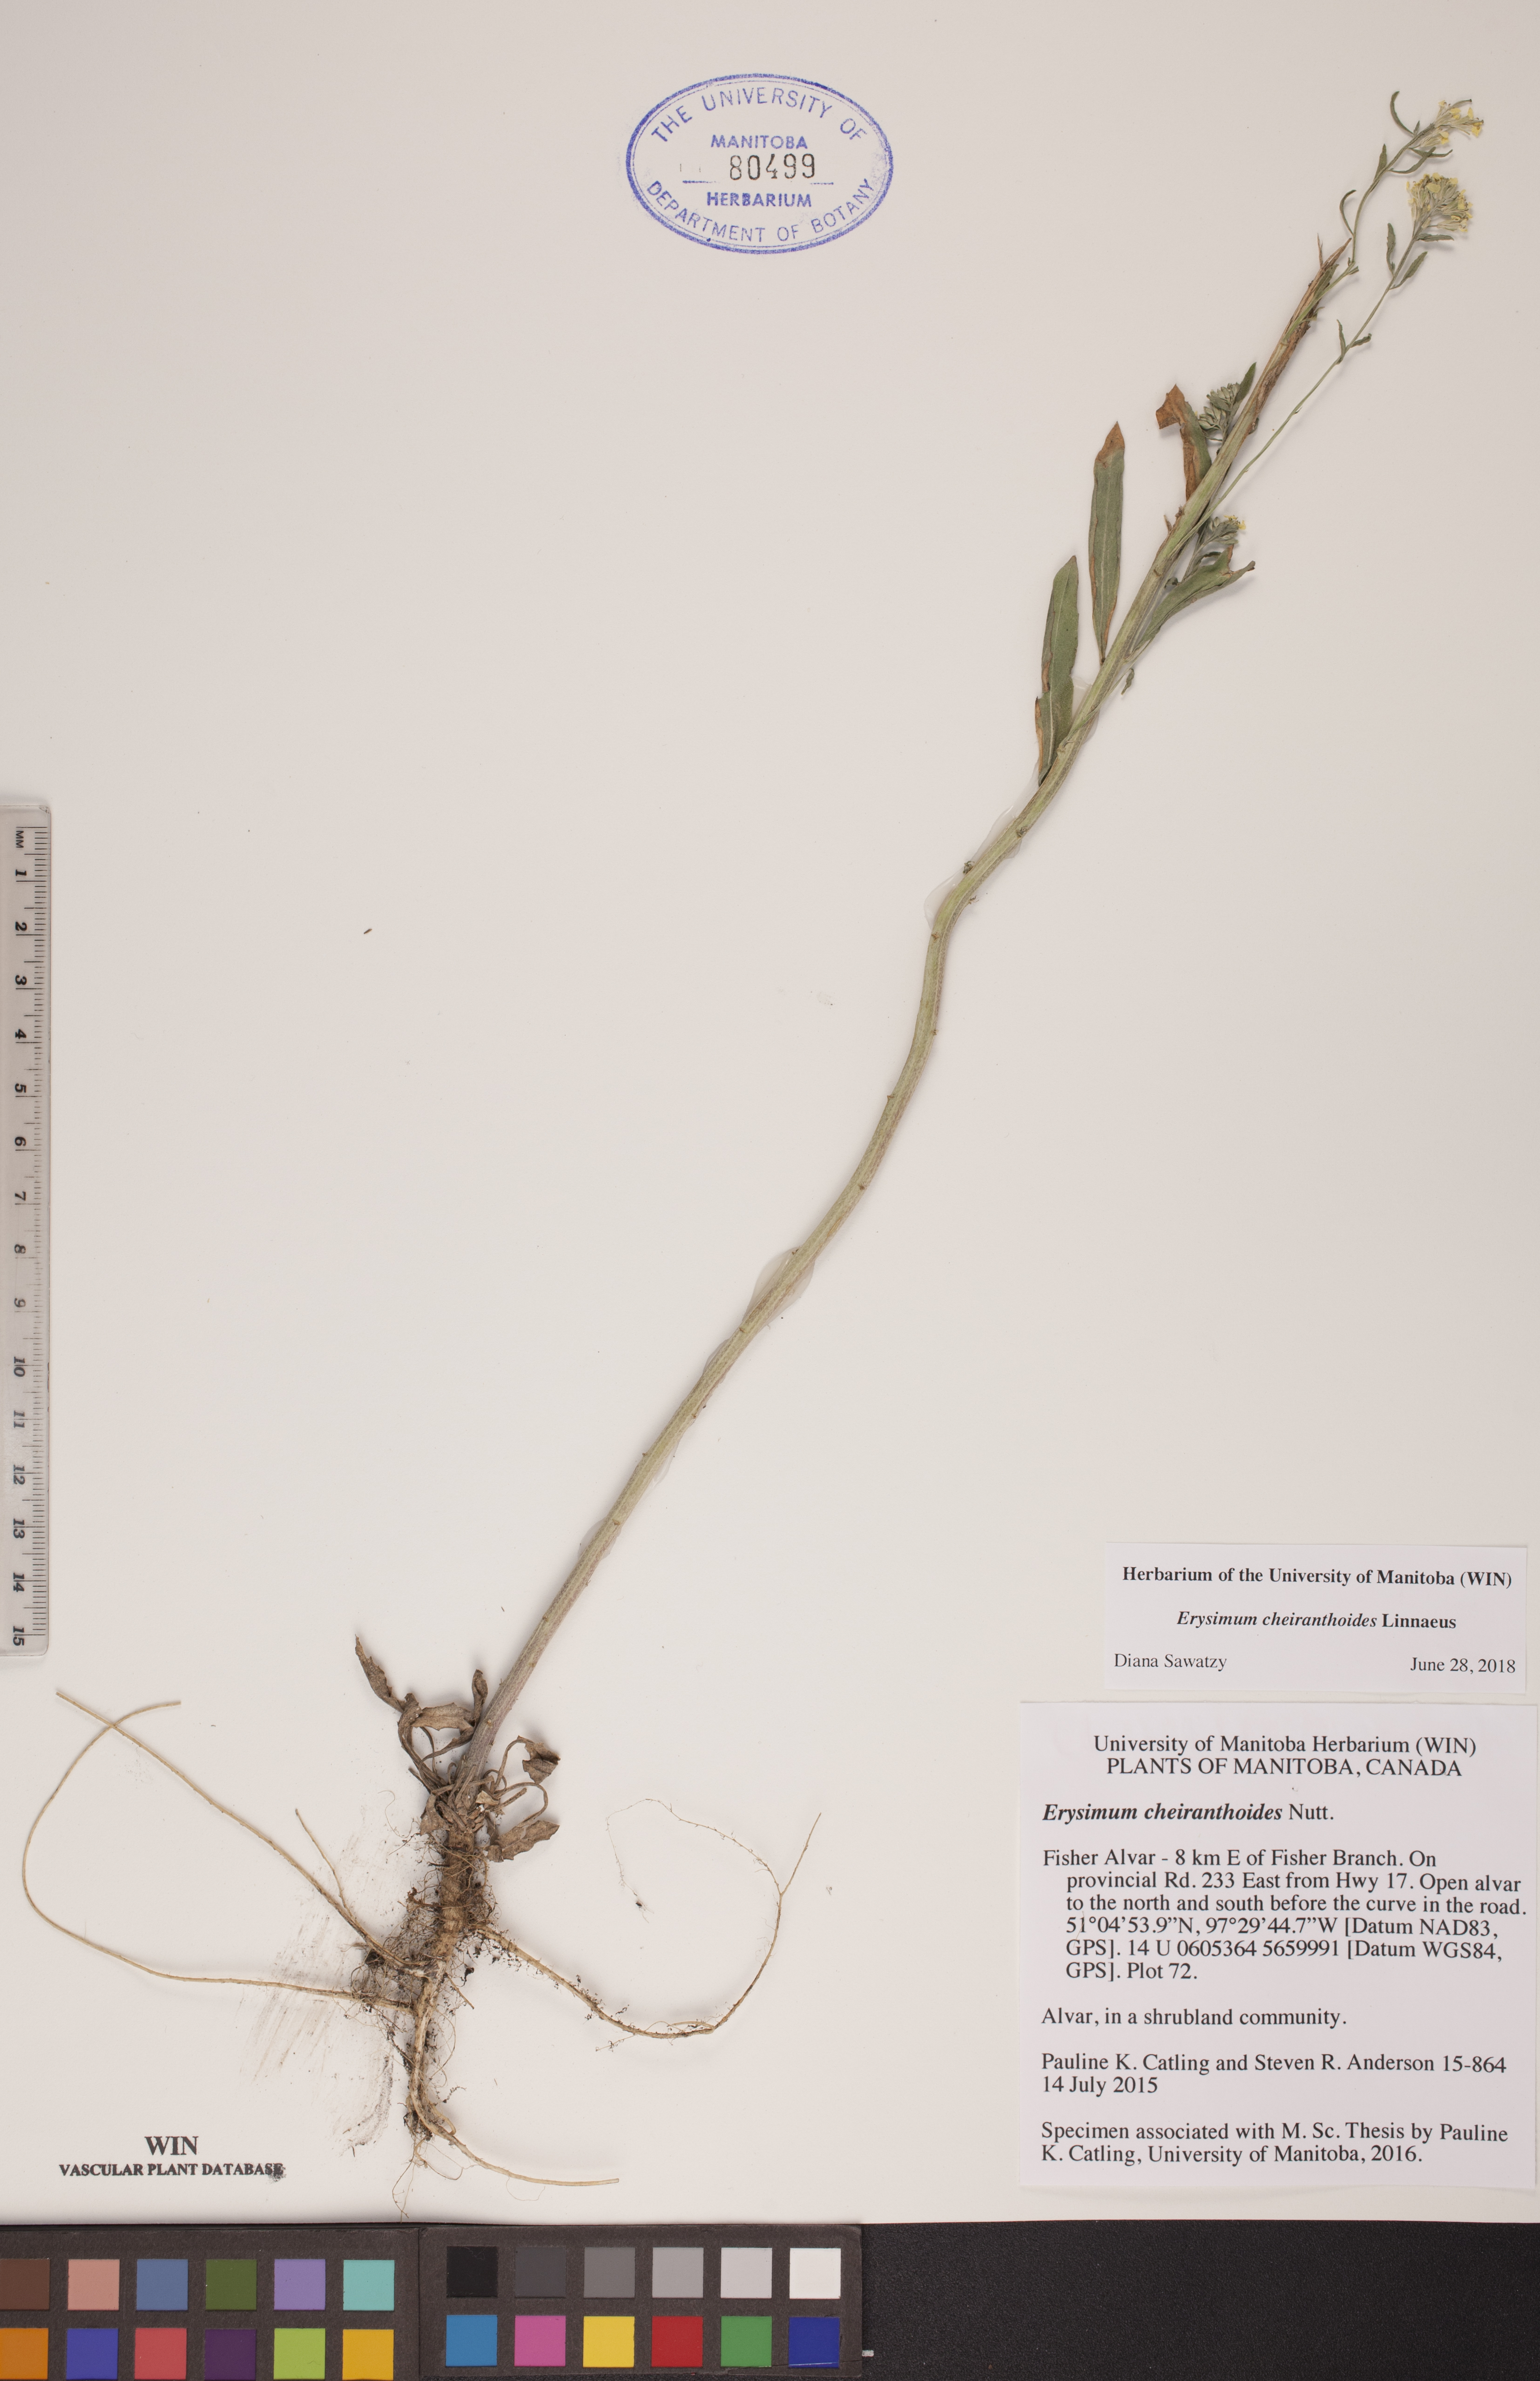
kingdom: Plantae
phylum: Tracheophyta
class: Magnoliopsida
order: Brassicales
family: Brassicaceae
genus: Erysimum
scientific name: Erysimum cheiranthoides
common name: Treacle mustard
